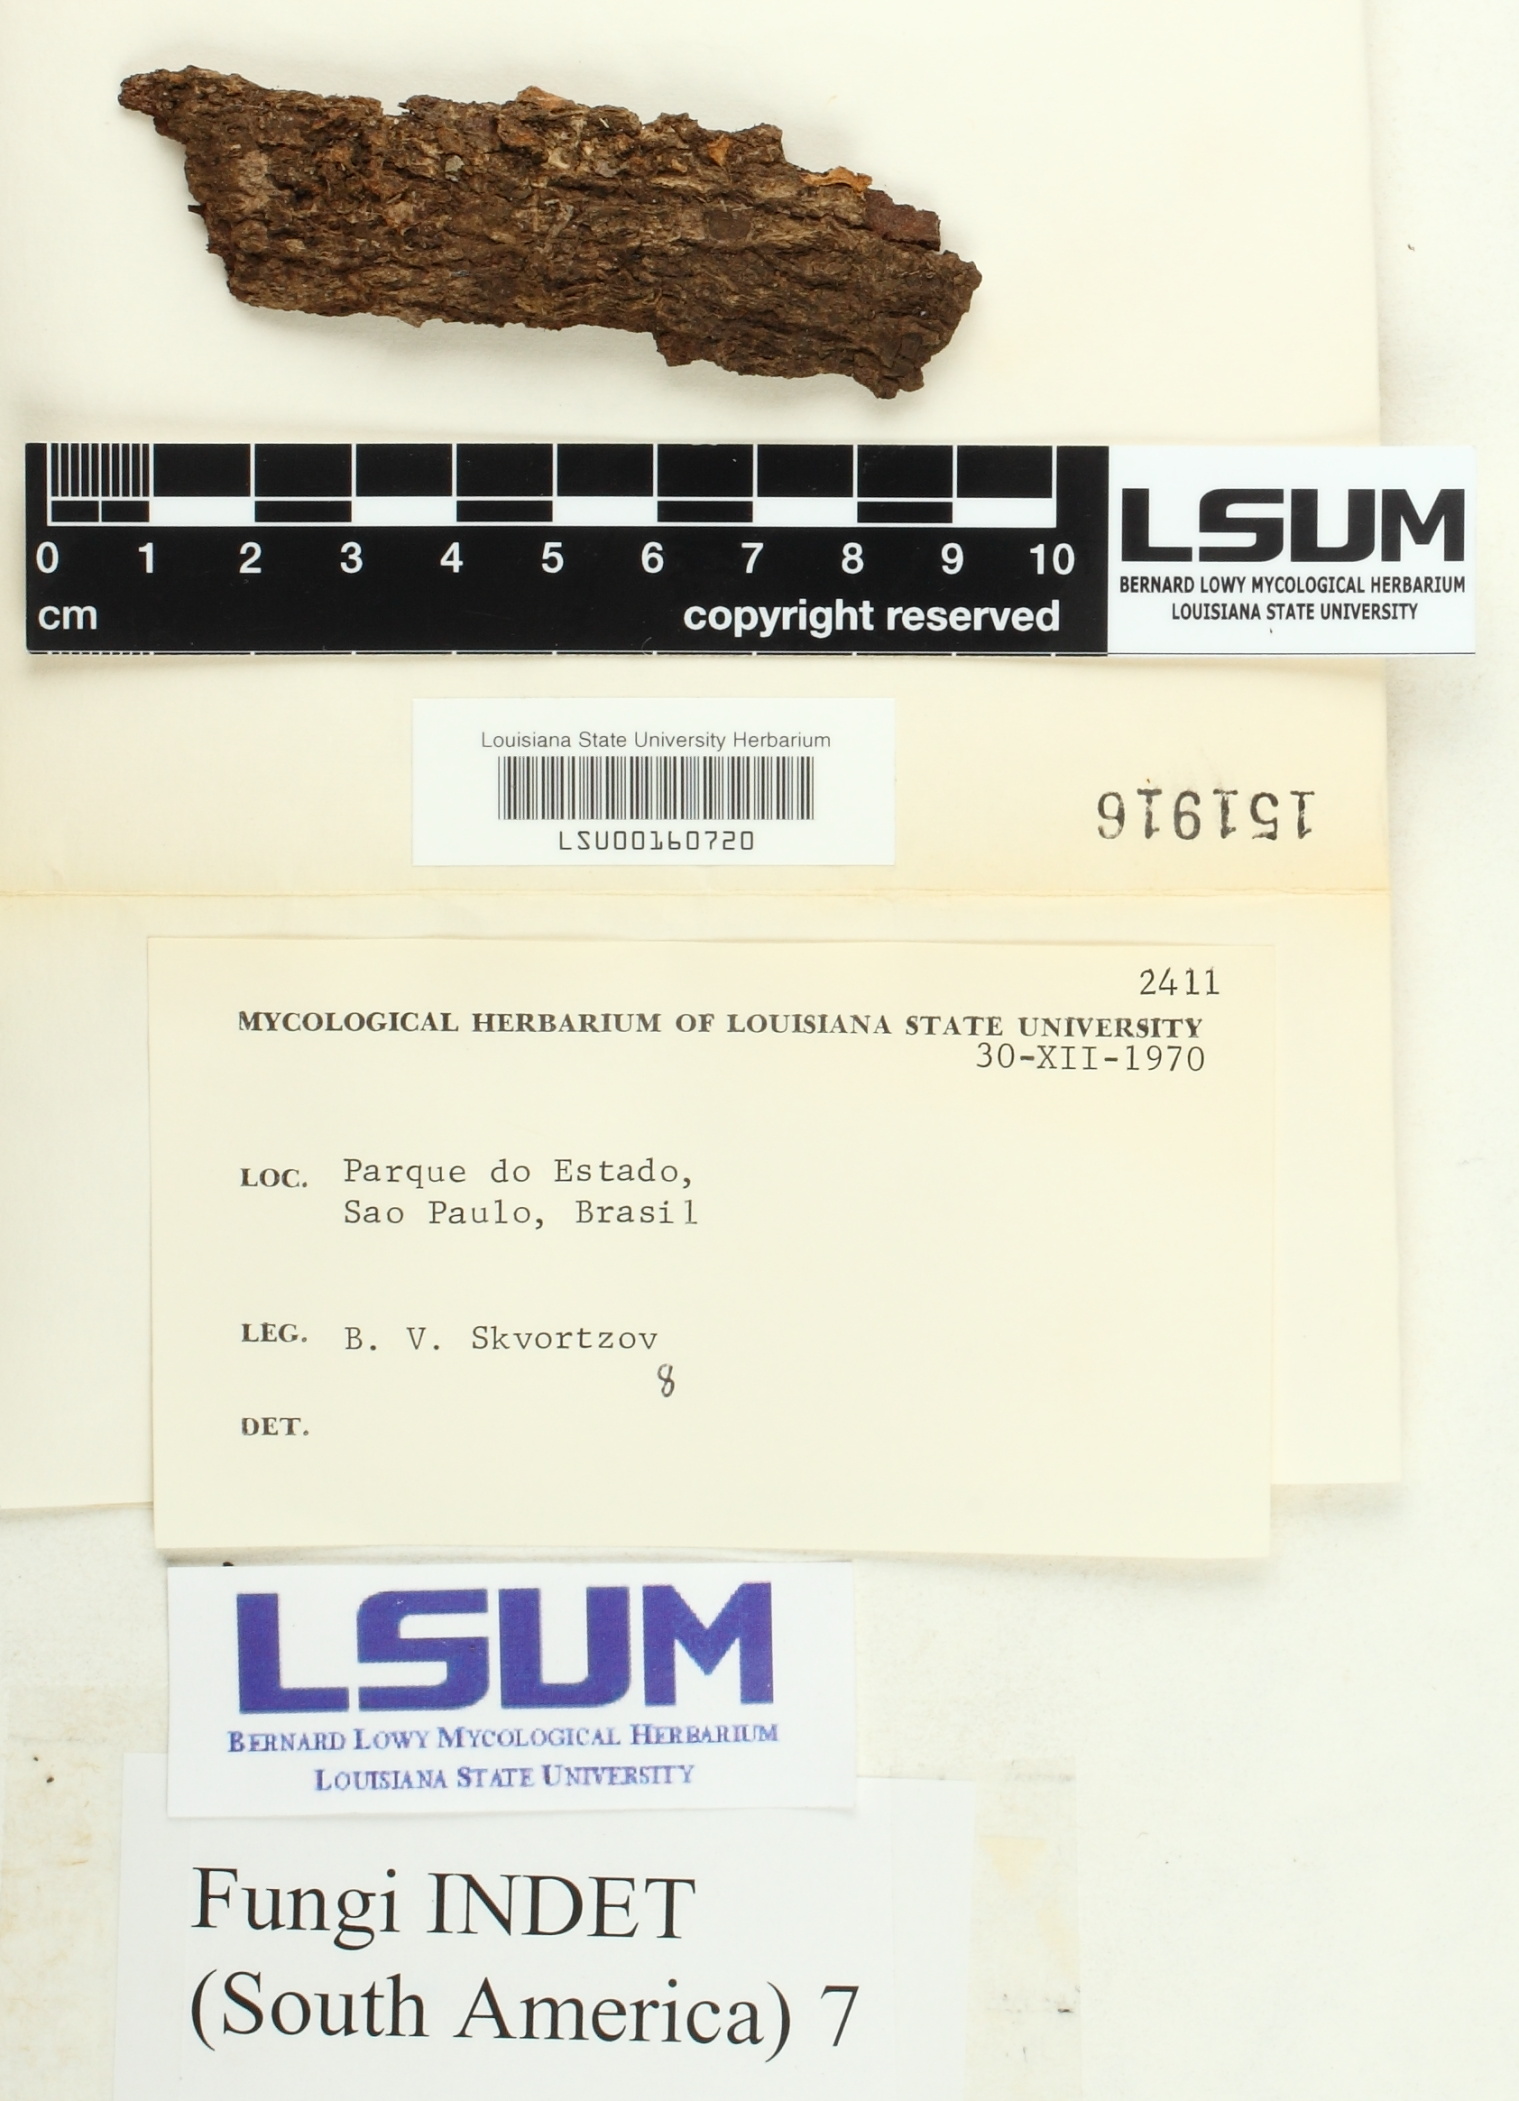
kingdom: Fungi
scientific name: Fungi
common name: Fungi
